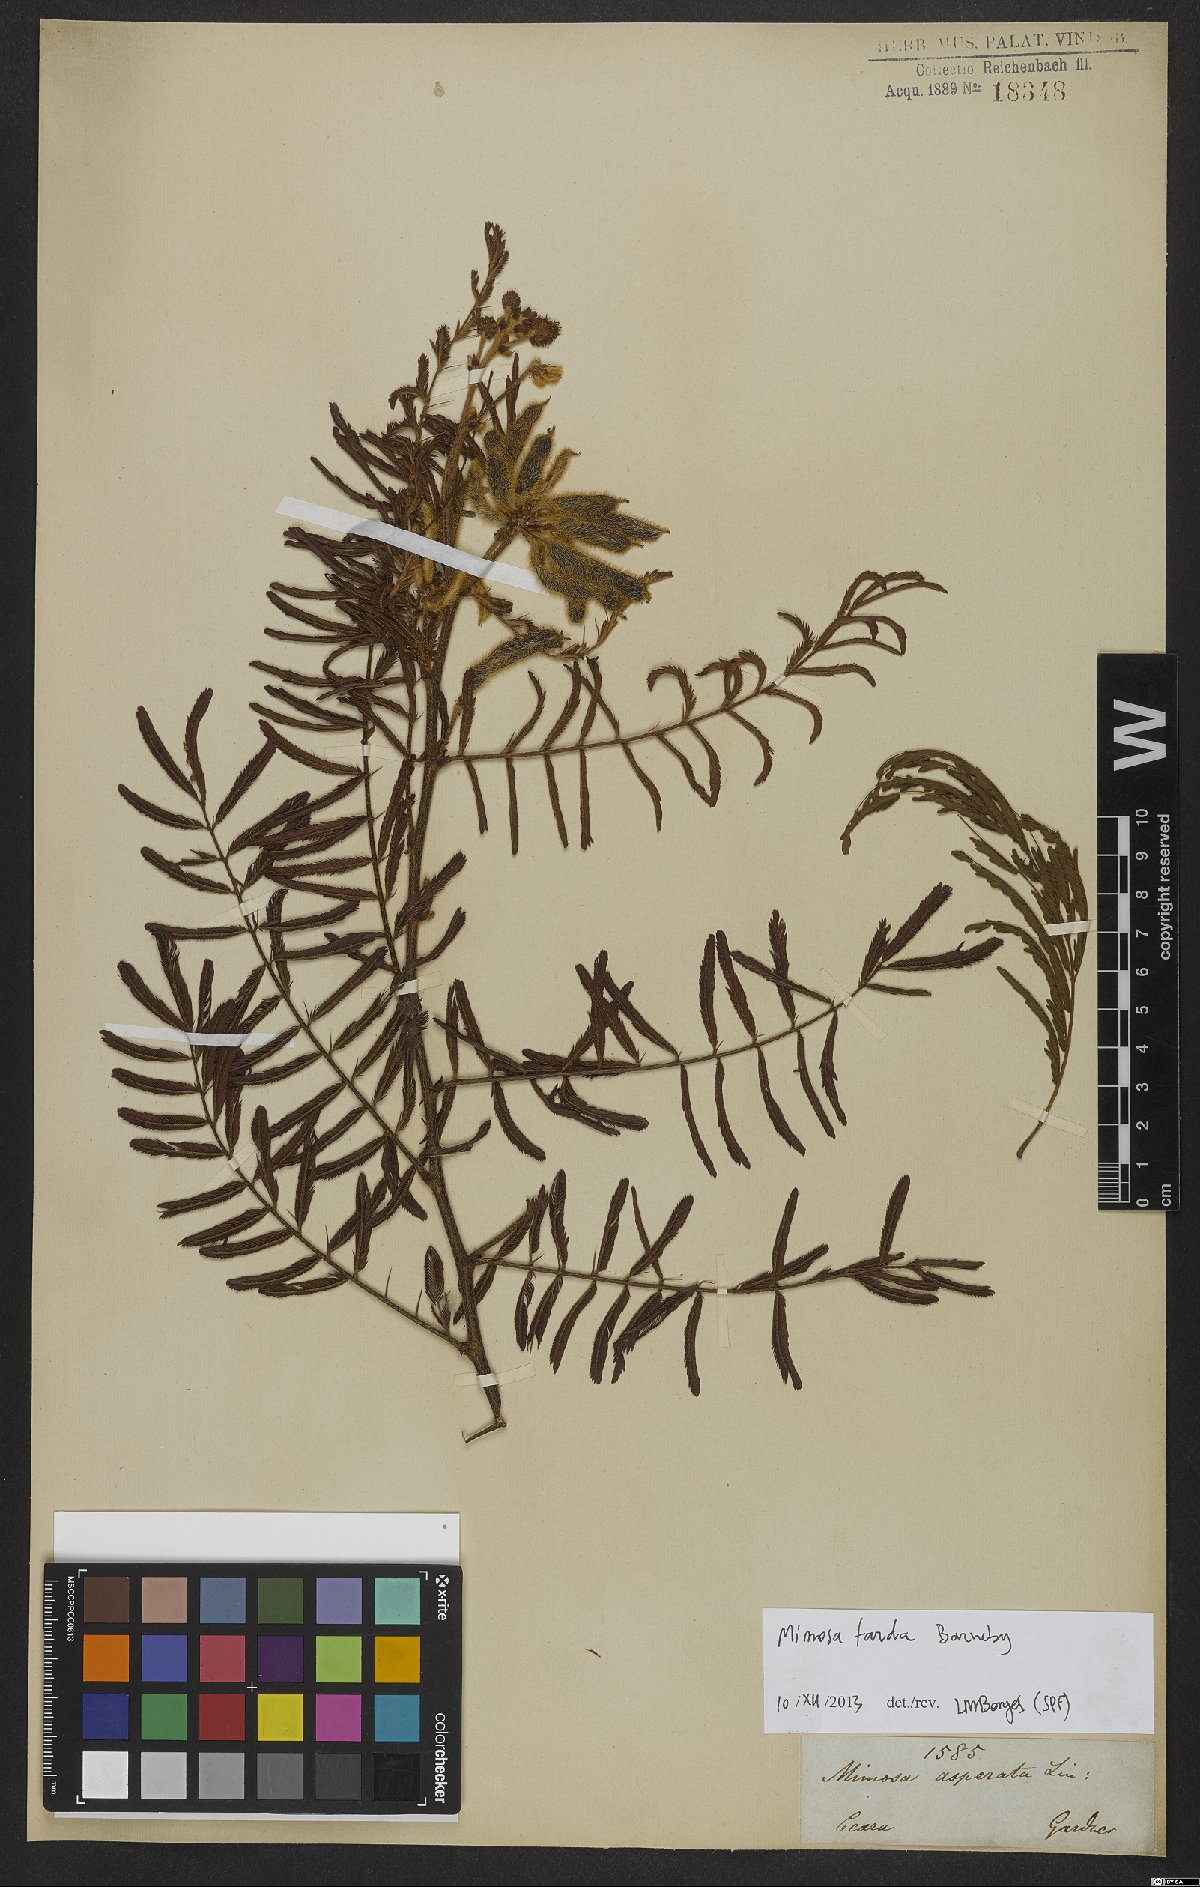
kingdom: Plantae
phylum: Tracheophyta
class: Magnoliopsida
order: Fabales
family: Fabaceae
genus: Mimosa
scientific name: Mimosa tarda
